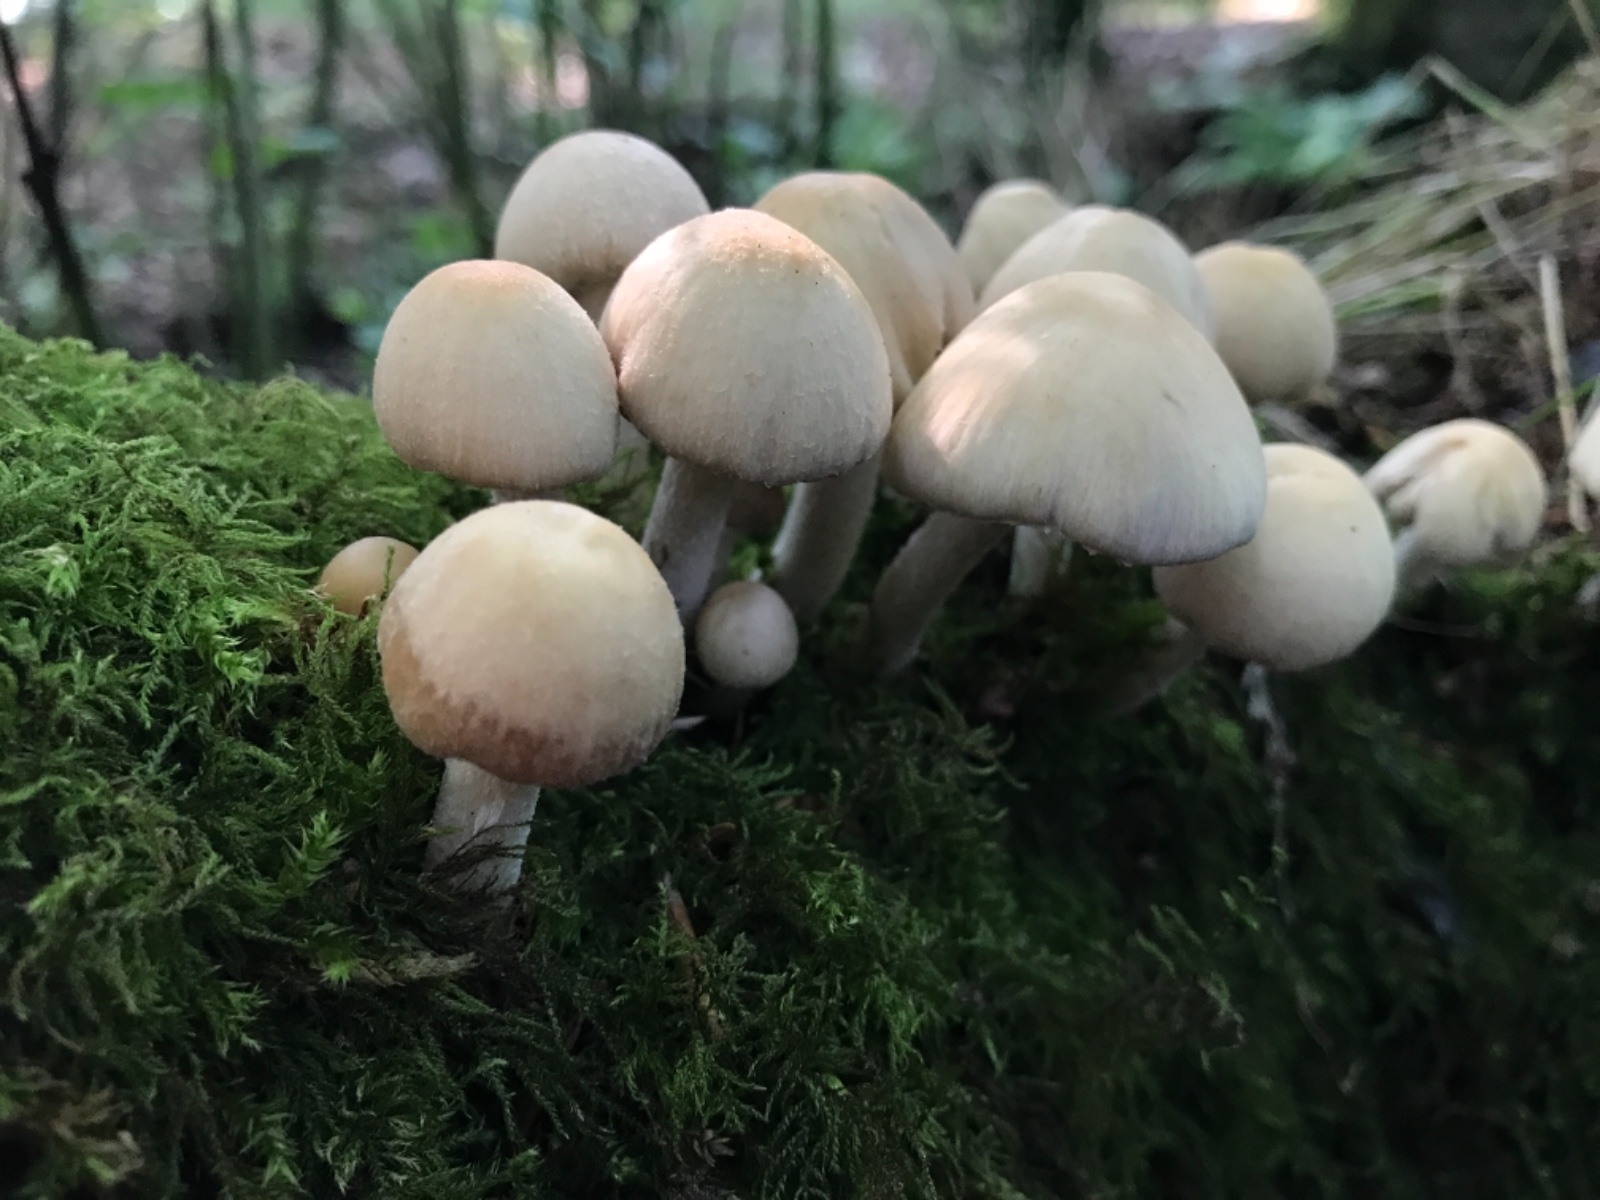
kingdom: Fungi
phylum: Basidiomycota
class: Agaricomycetes
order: Agaricales
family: Psathyrellaceae
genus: Candolleomyces
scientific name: Candolleomyces candolleanus
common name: Candolles mørkhat
